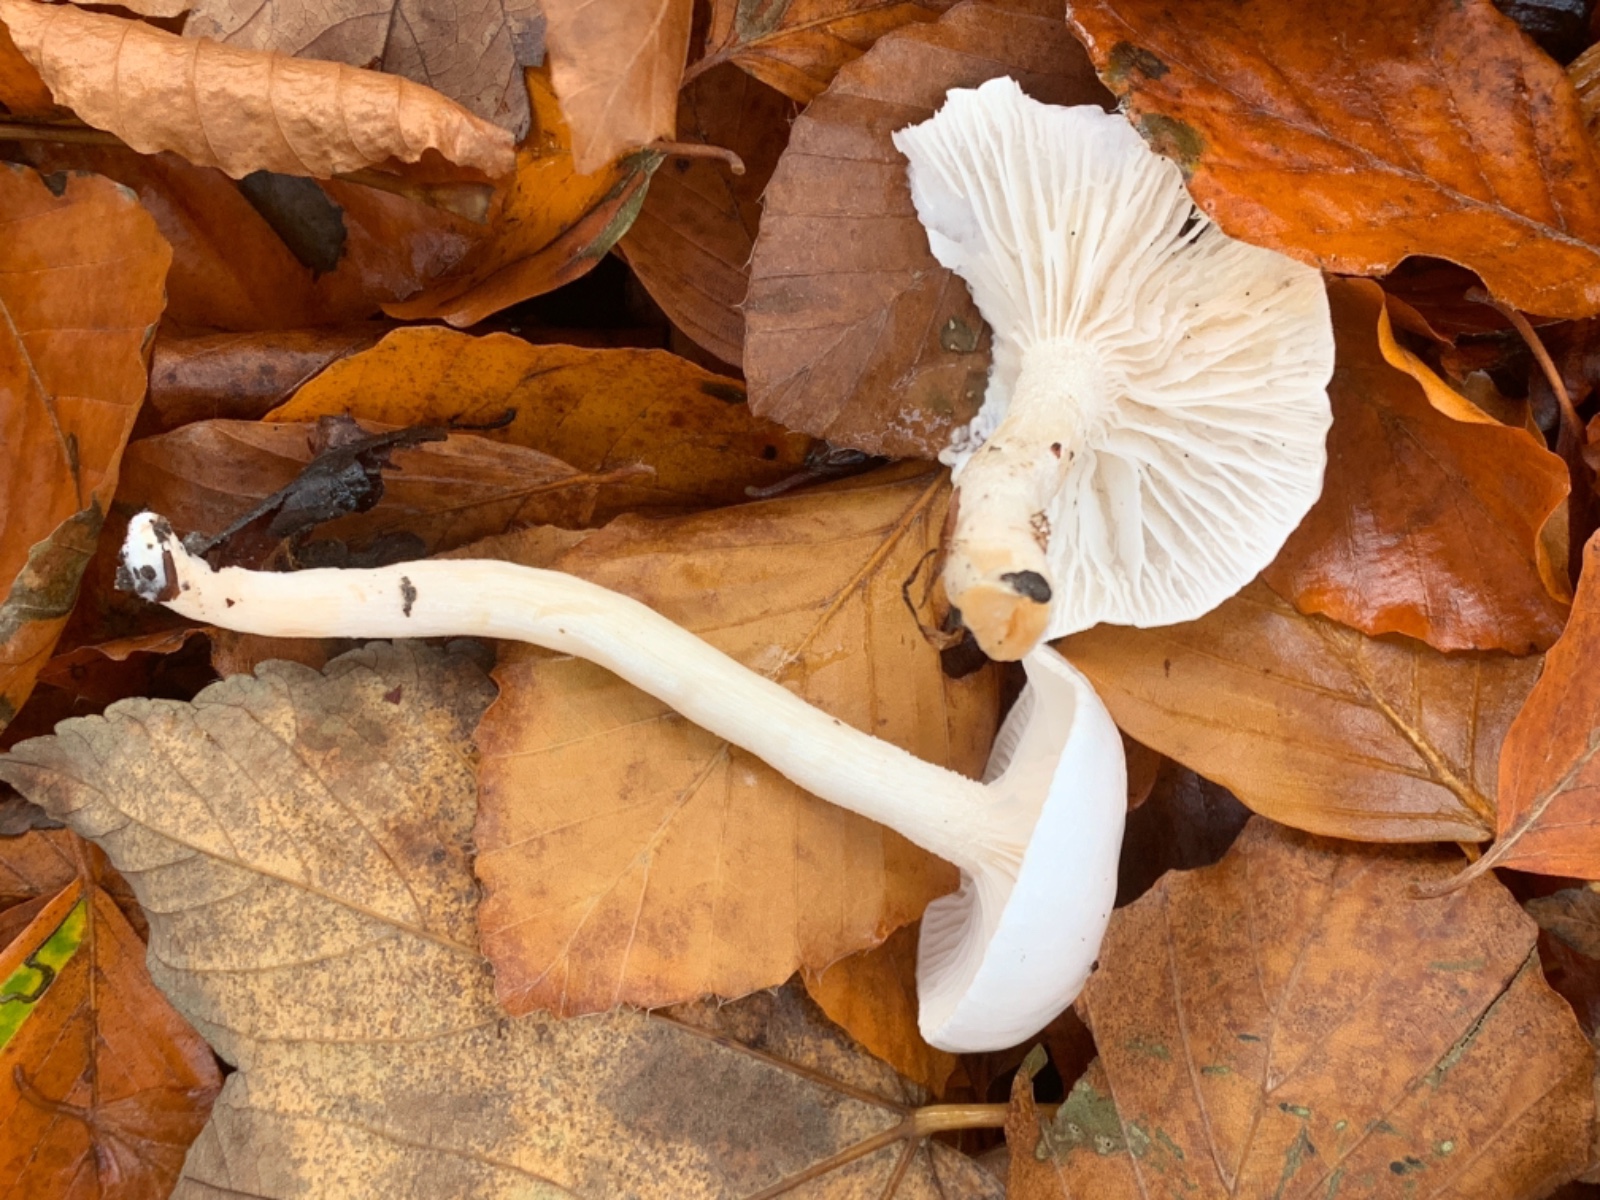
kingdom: Fungi
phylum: Basidiomycota
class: Agaricomycetes
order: Agaricales
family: Hygrophoraceae
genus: Hygrophorus
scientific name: Hygrophorus eburneus
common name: elfenbens-sneglehat
